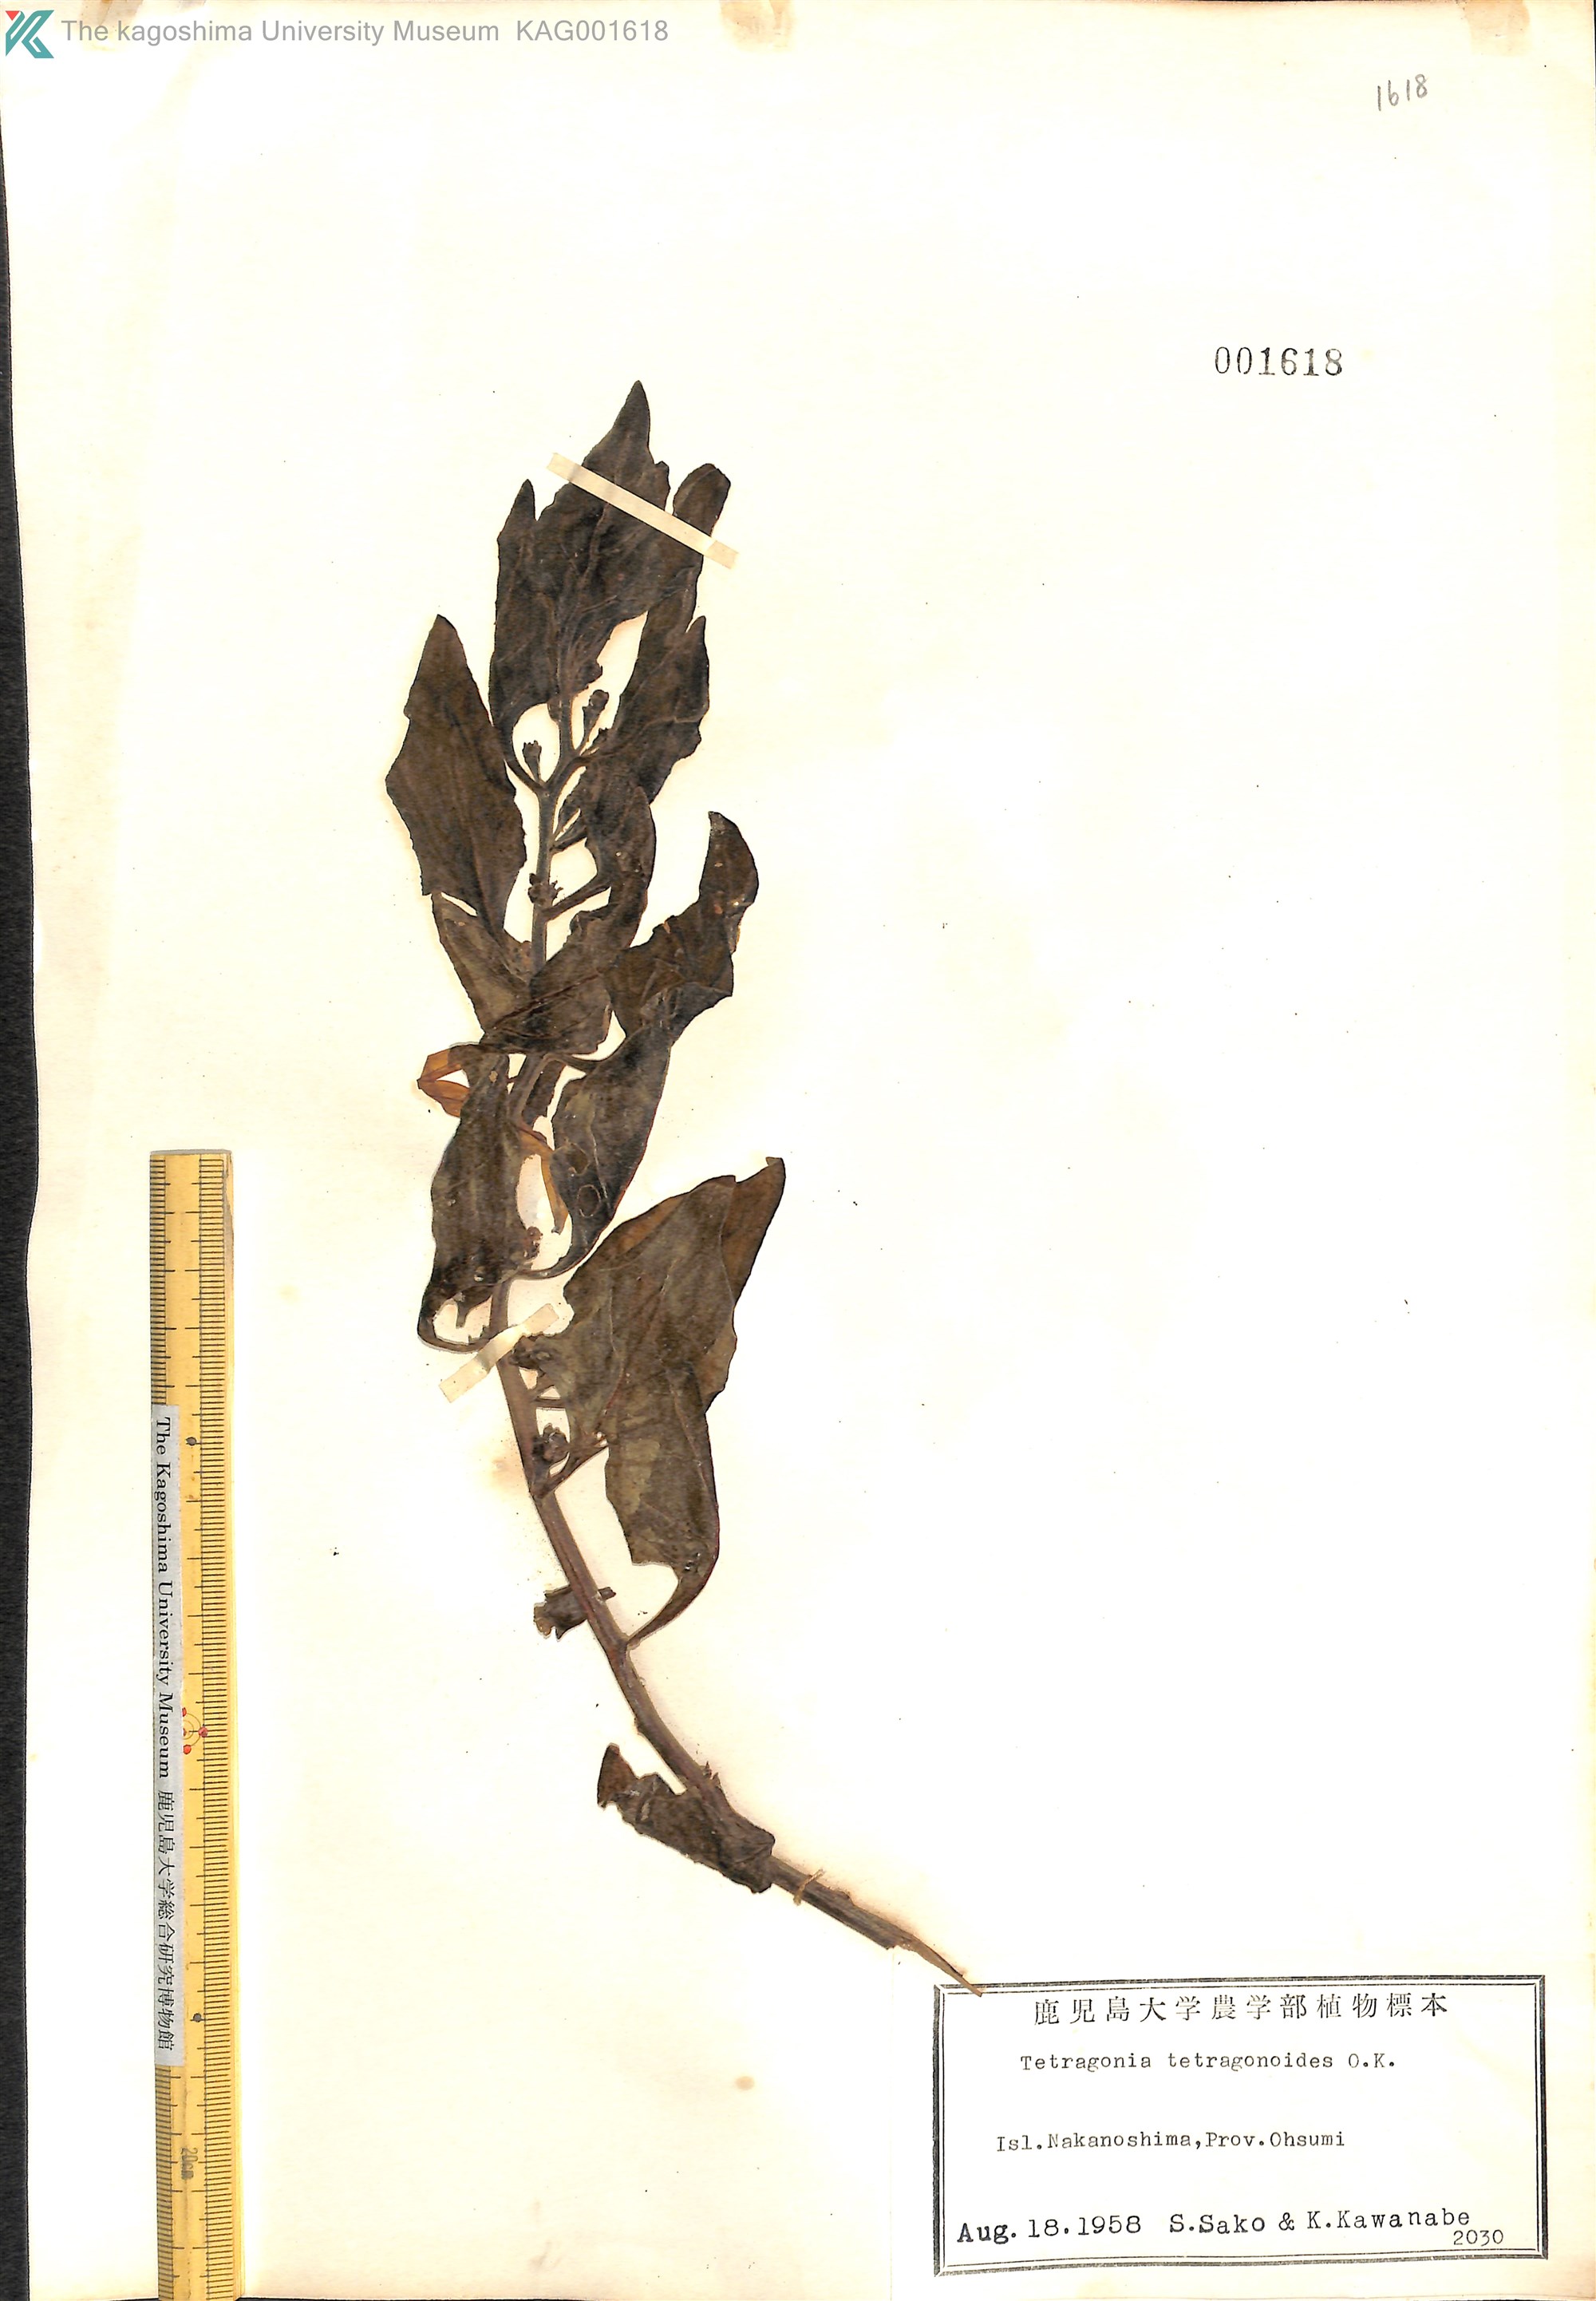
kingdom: Plantae
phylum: Tracheophyta
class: Magnoliopsida
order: Caryophyllales
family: Aizoaceae
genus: Tetragonia
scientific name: Tetragonia tetragonoides
